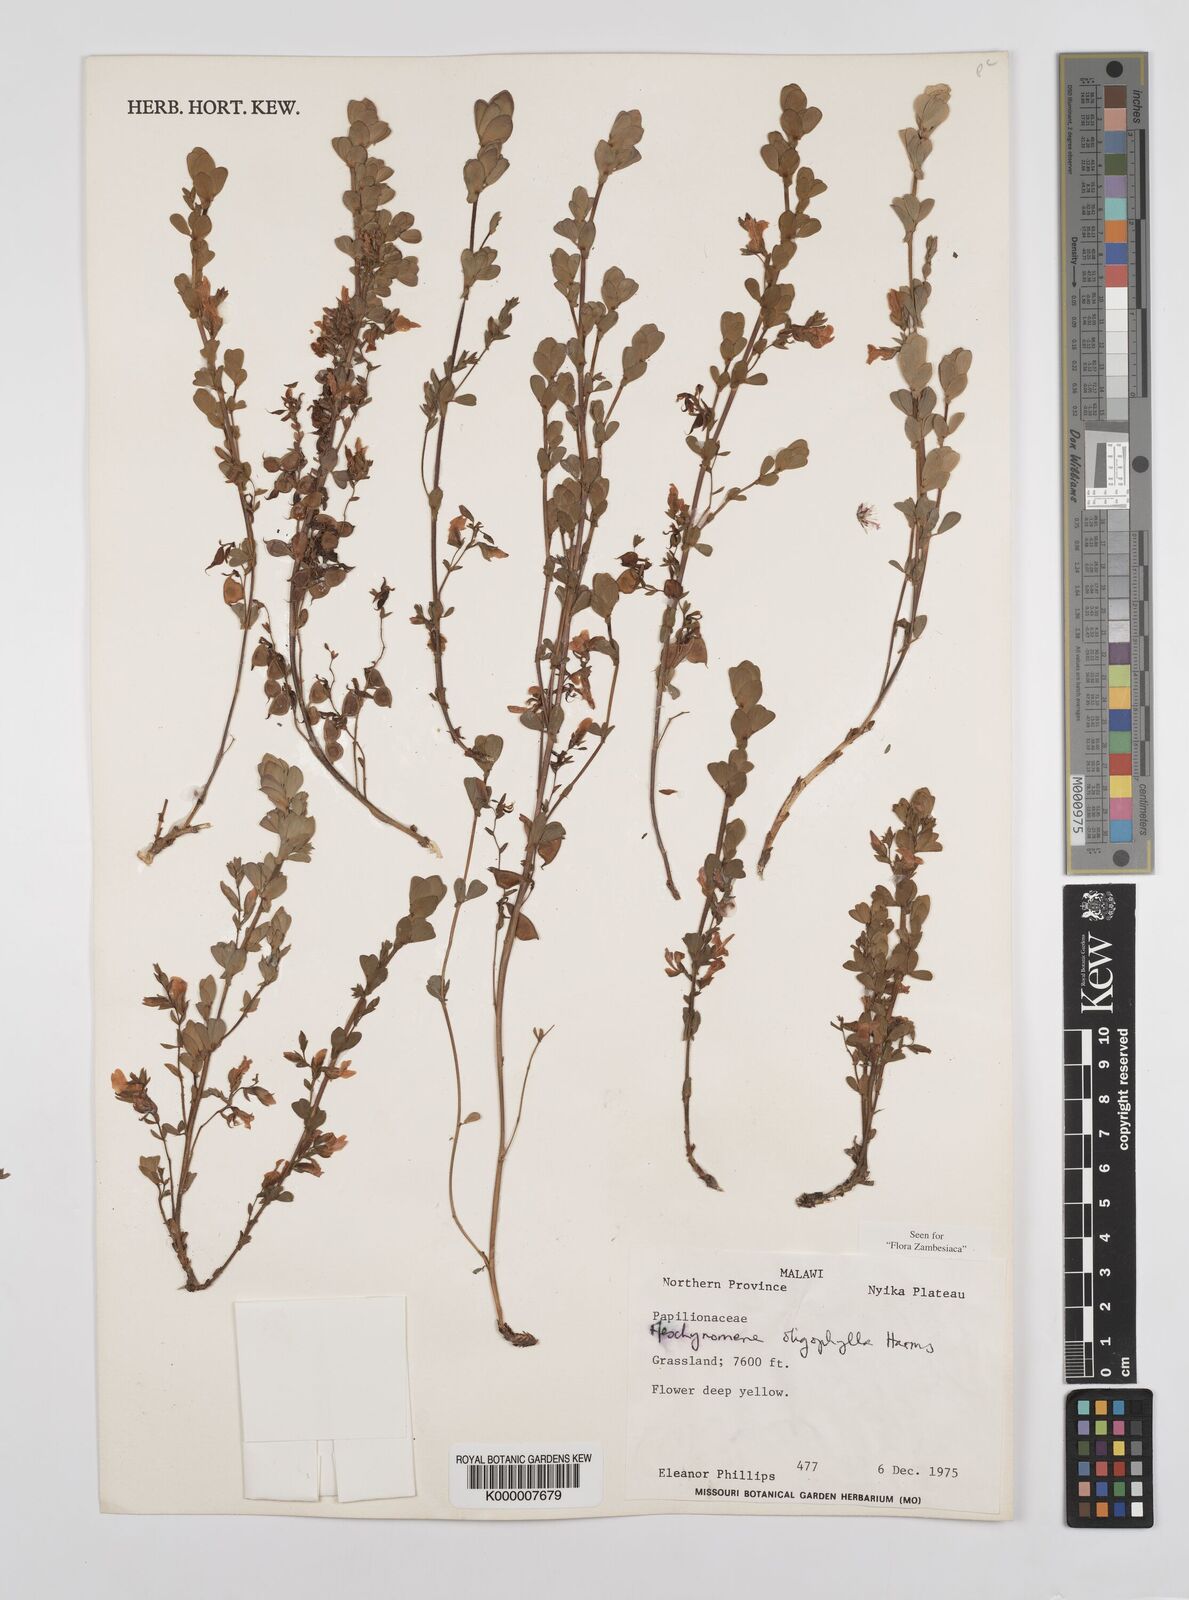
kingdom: Plantae
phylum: Tracheophyta
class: Magnoliopsida
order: Fabales
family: Fabaceae
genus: Aeschynomene
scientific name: Aeschynomene oligophylla
